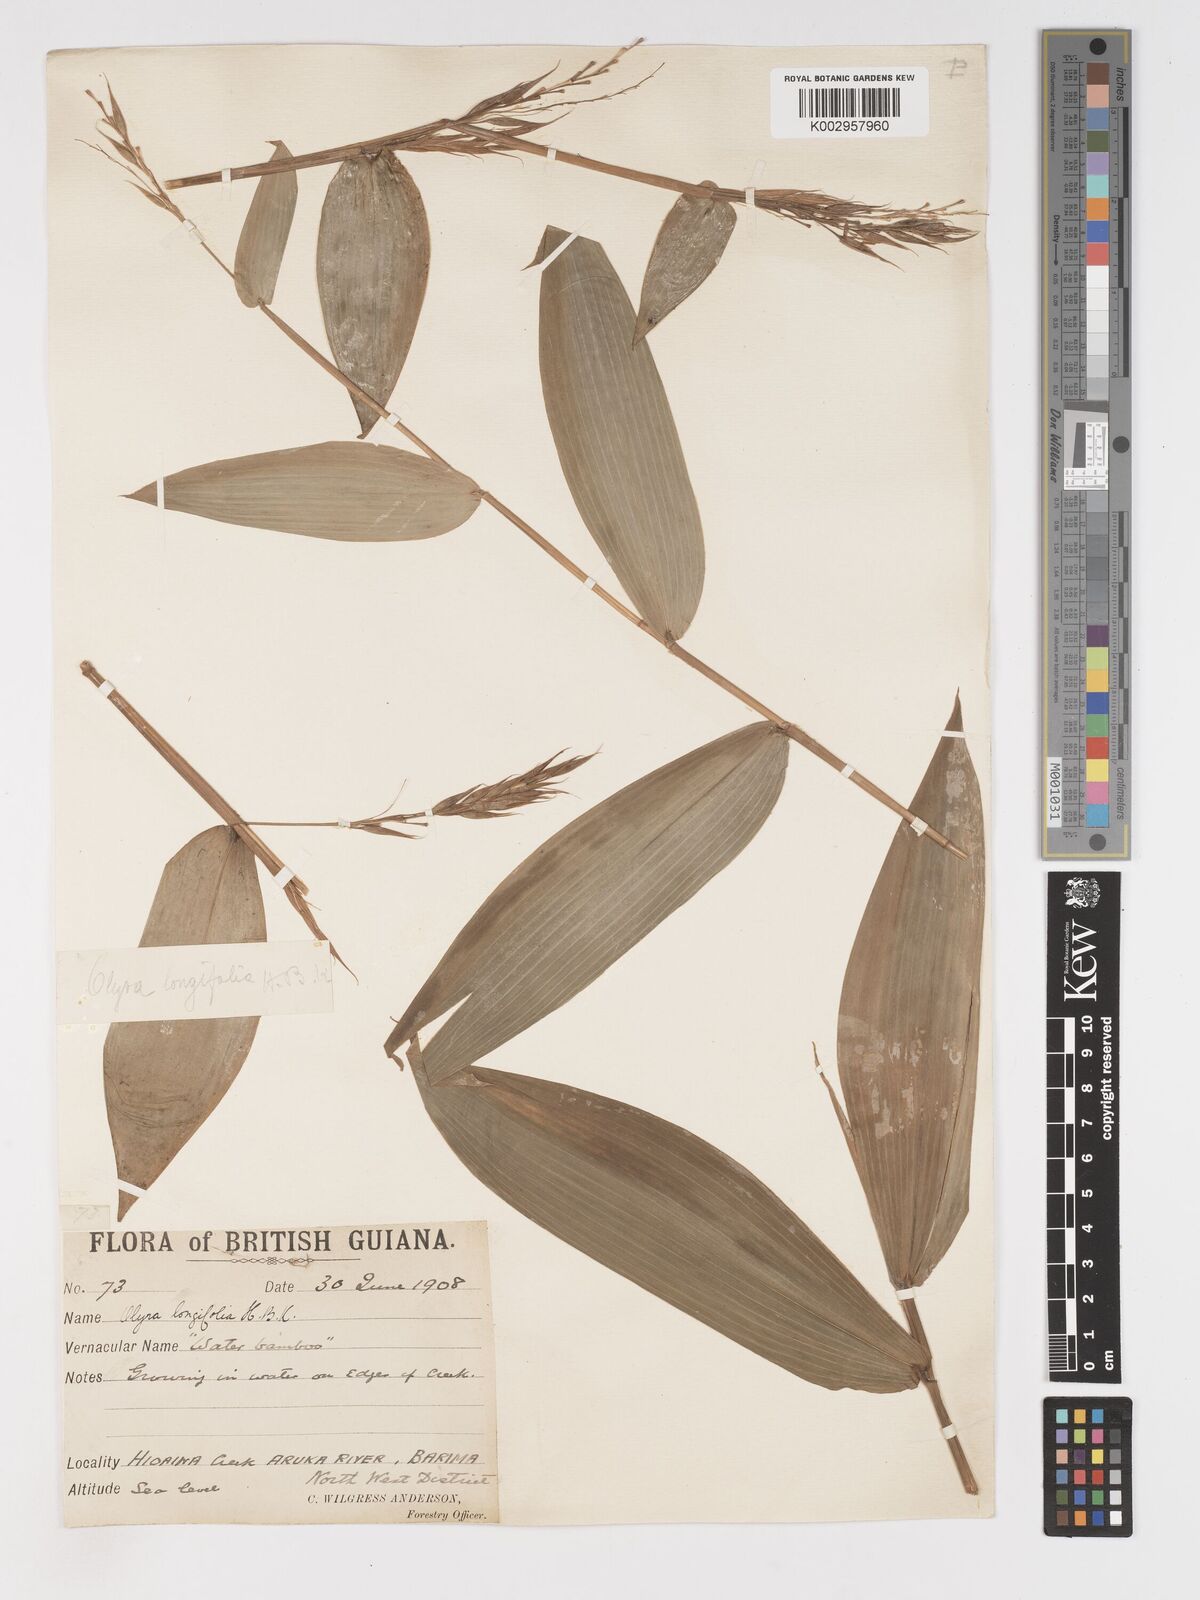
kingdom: Plantae
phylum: Tracheophyta
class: Liliopsida
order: Poales
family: Poaceae
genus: Olyra
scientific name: Olyra longifolia
